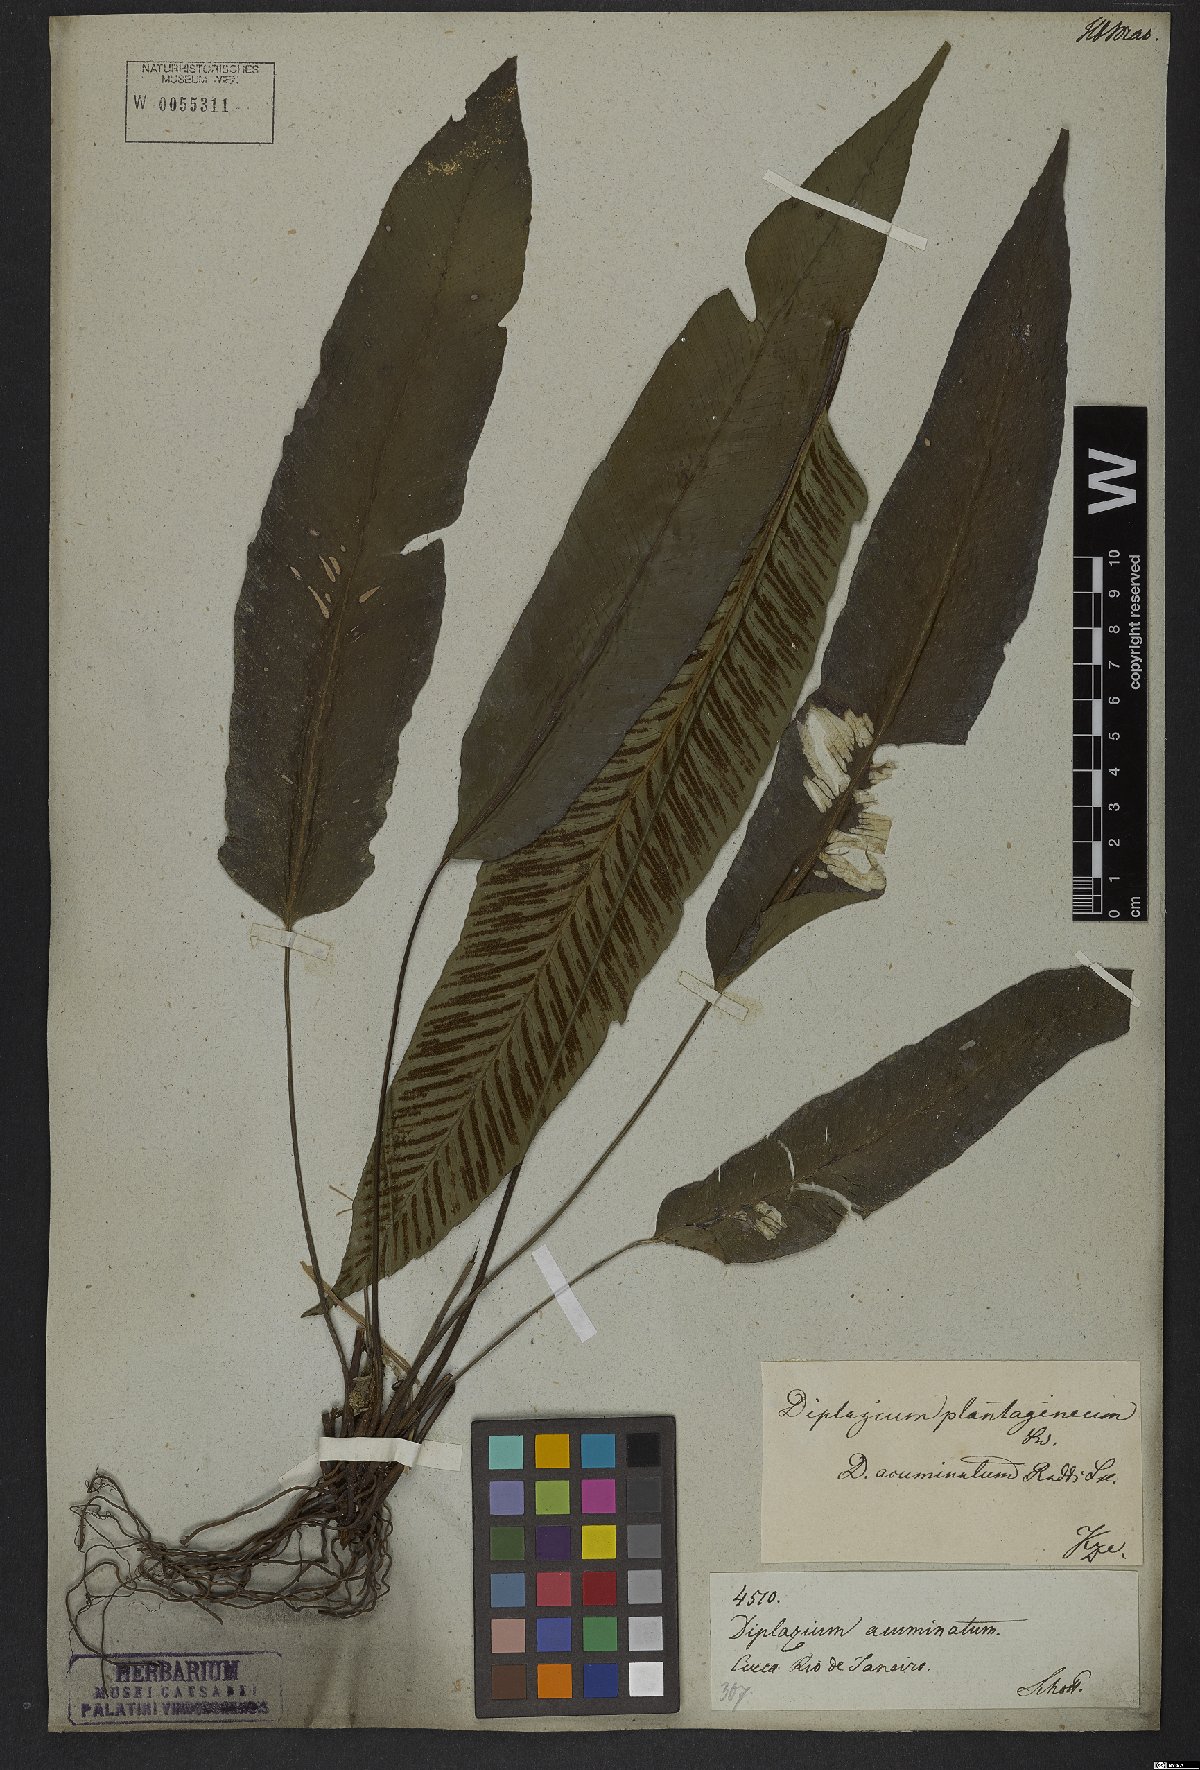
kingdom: Plantae
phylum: Tracheophyta
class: Polypodiopsida
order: Polypodiales
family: Athyriaceae
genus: Diplazium
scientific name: Diplazium plantaginifolium
